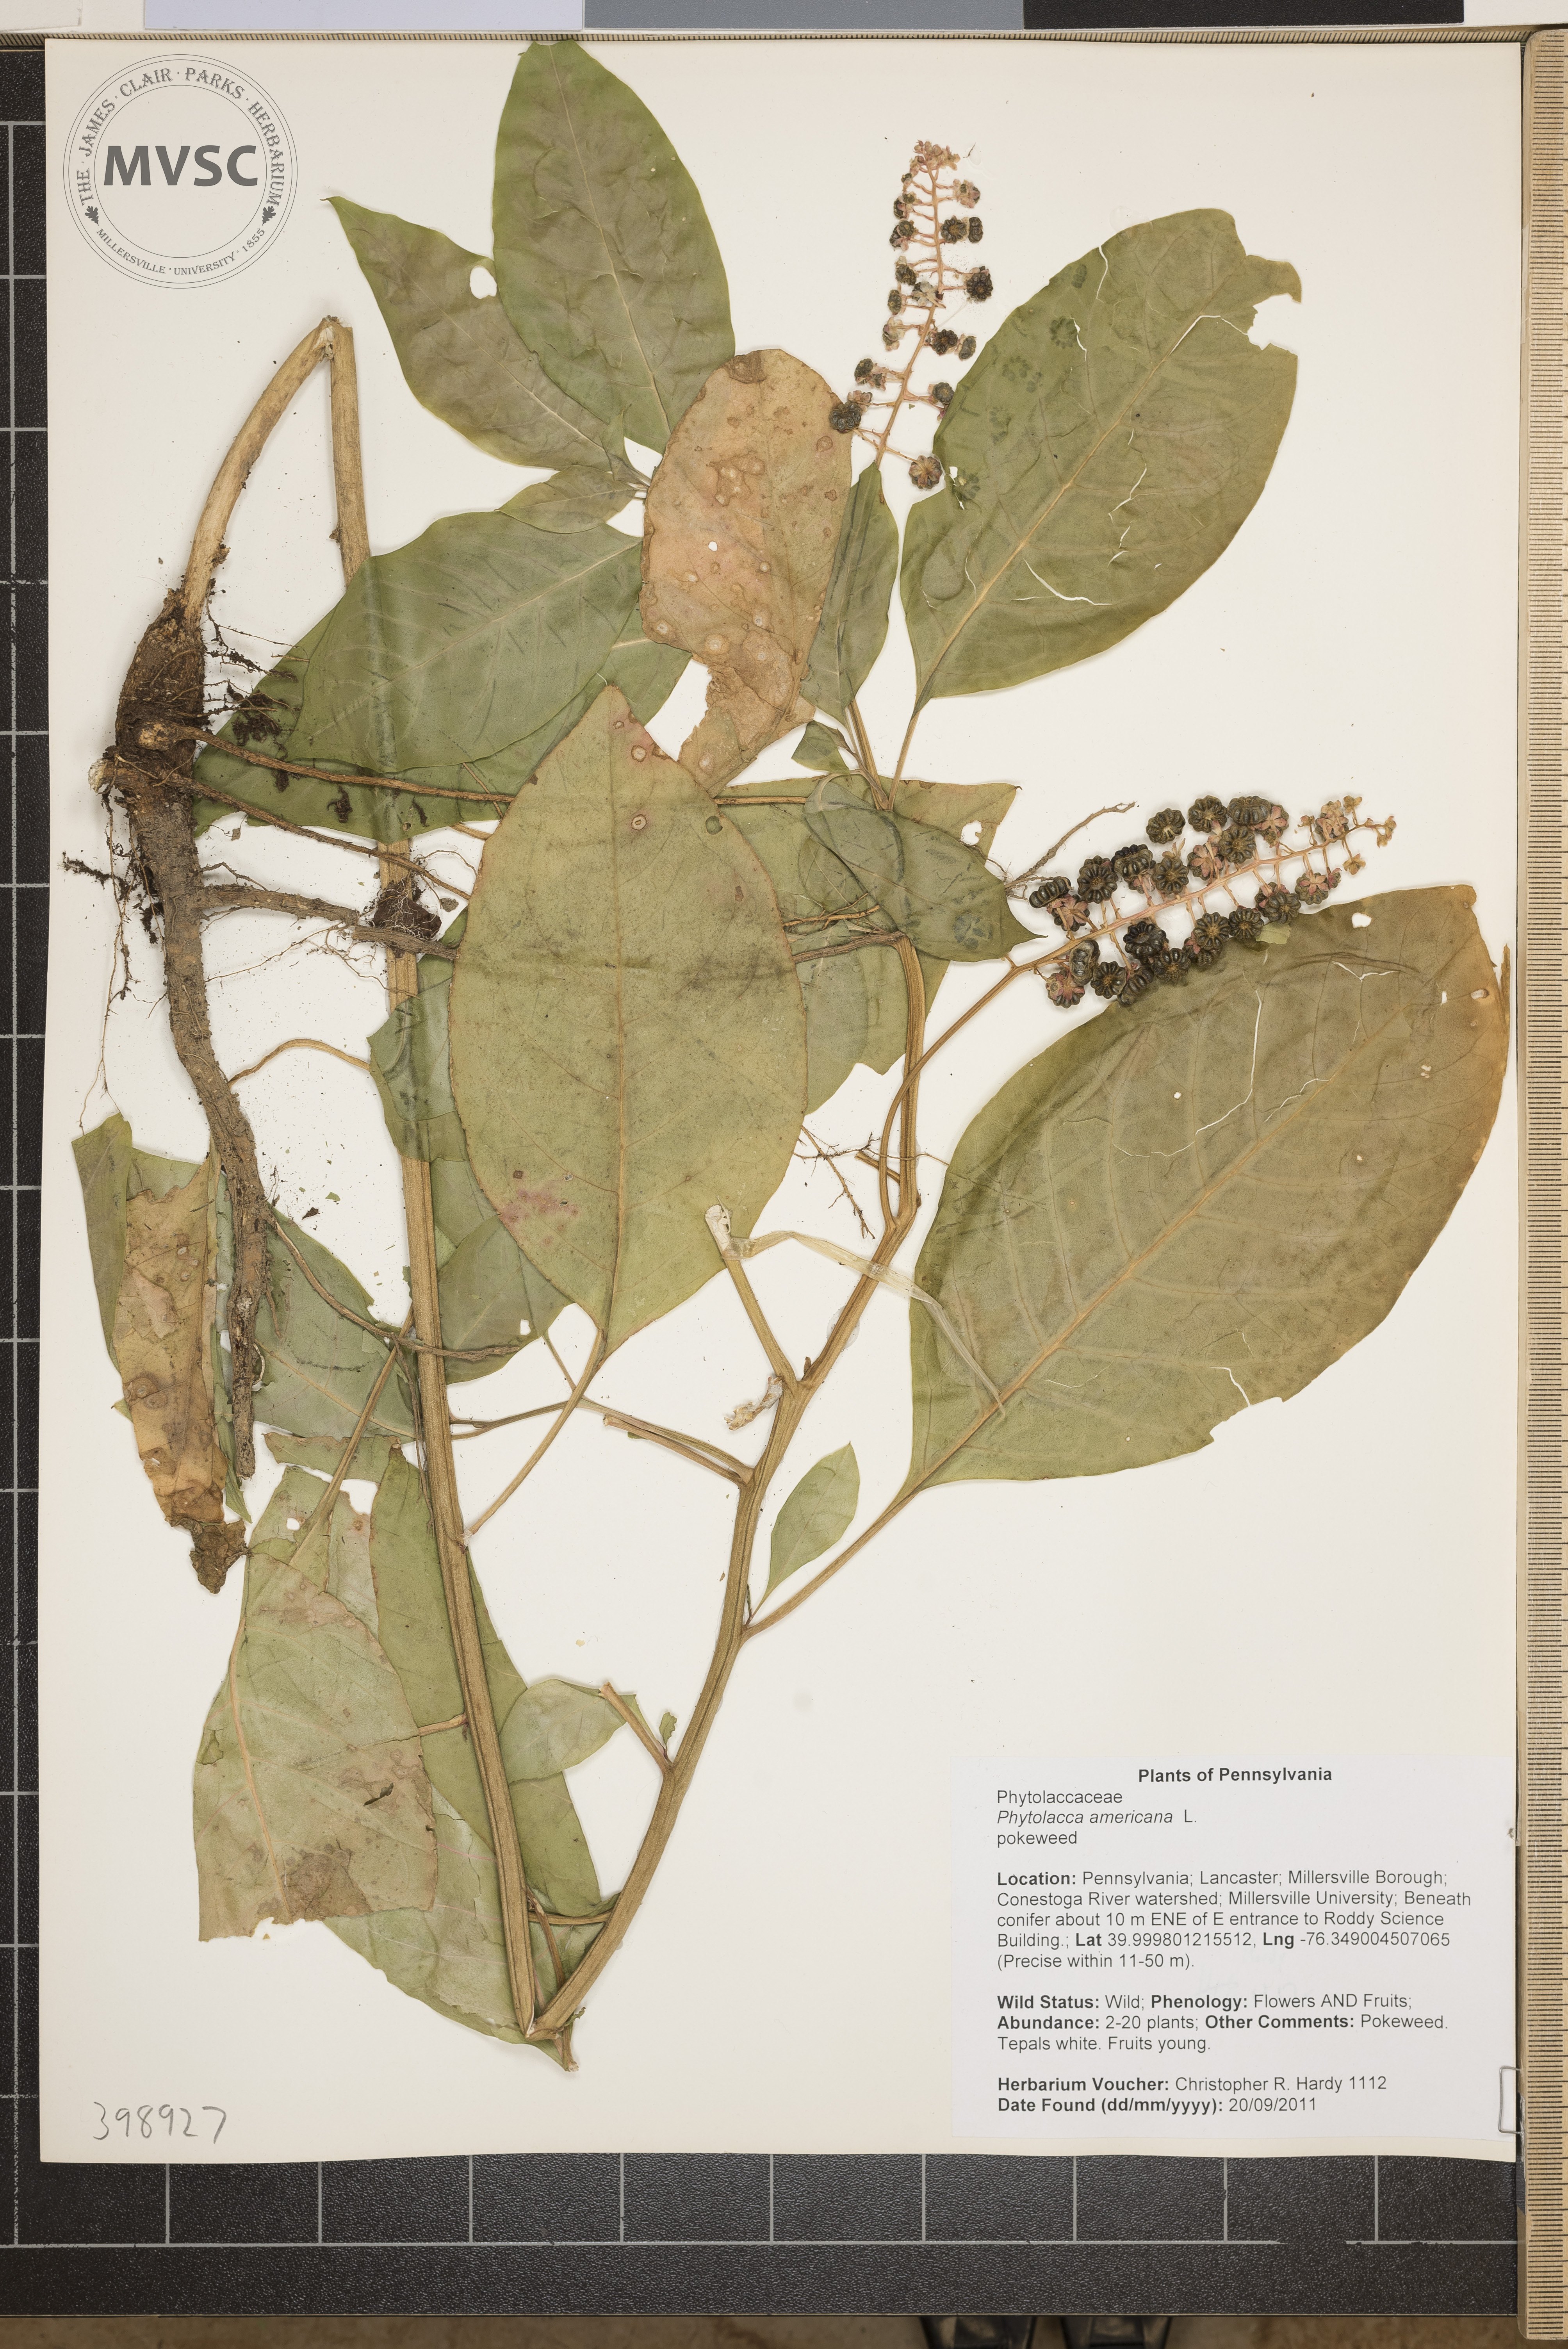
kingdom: Plantae
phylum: Tracheophyta
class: Magnoliopsida
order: Caryophyllales
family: Phytolaccaceae
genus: Phytolacca
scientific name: Phytolacca americana
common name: Pokeweed
